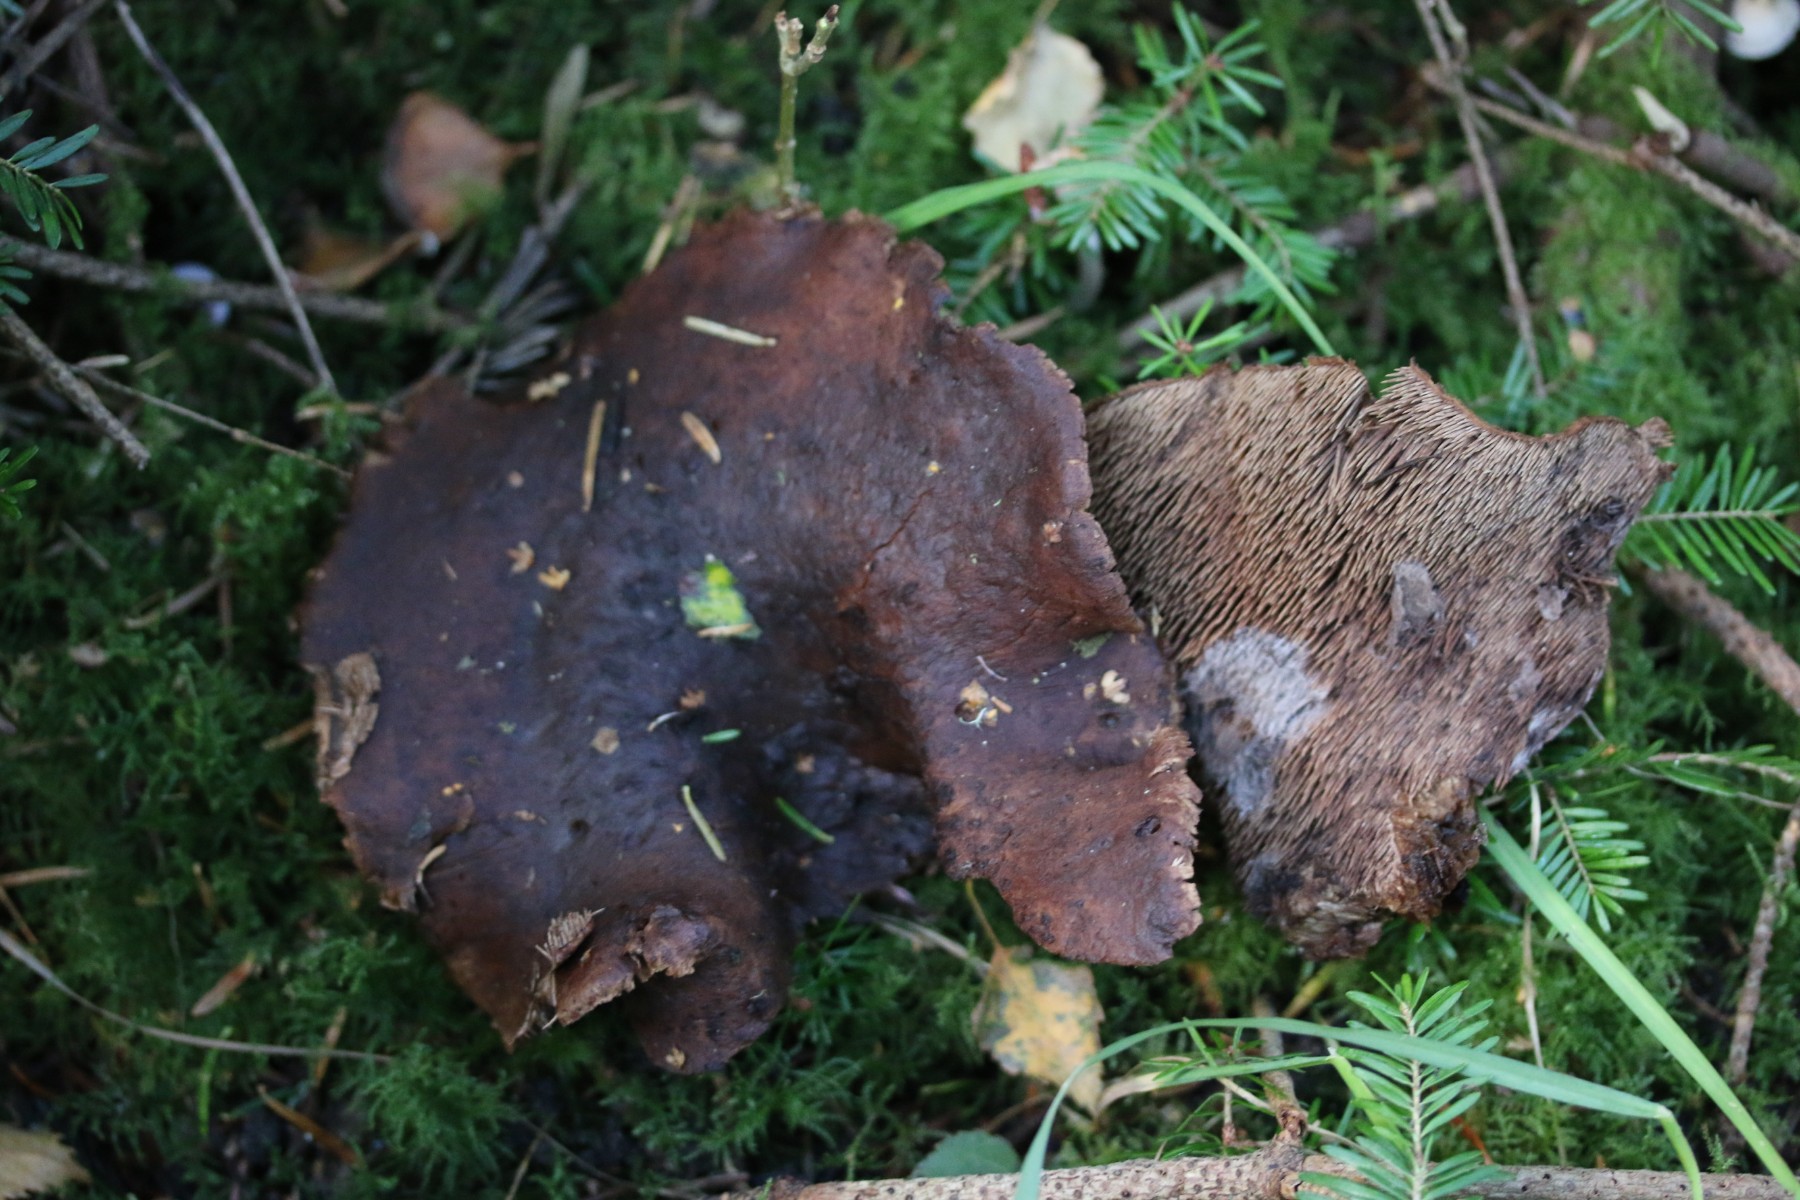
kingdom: Fungi
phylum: Basidiomycota
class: Agaricomycetes
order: Thelephorales
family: Bankeraceae
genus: Sarcodon
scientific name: Sarcodon imbricatus
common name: skællet kødpigsvamp
